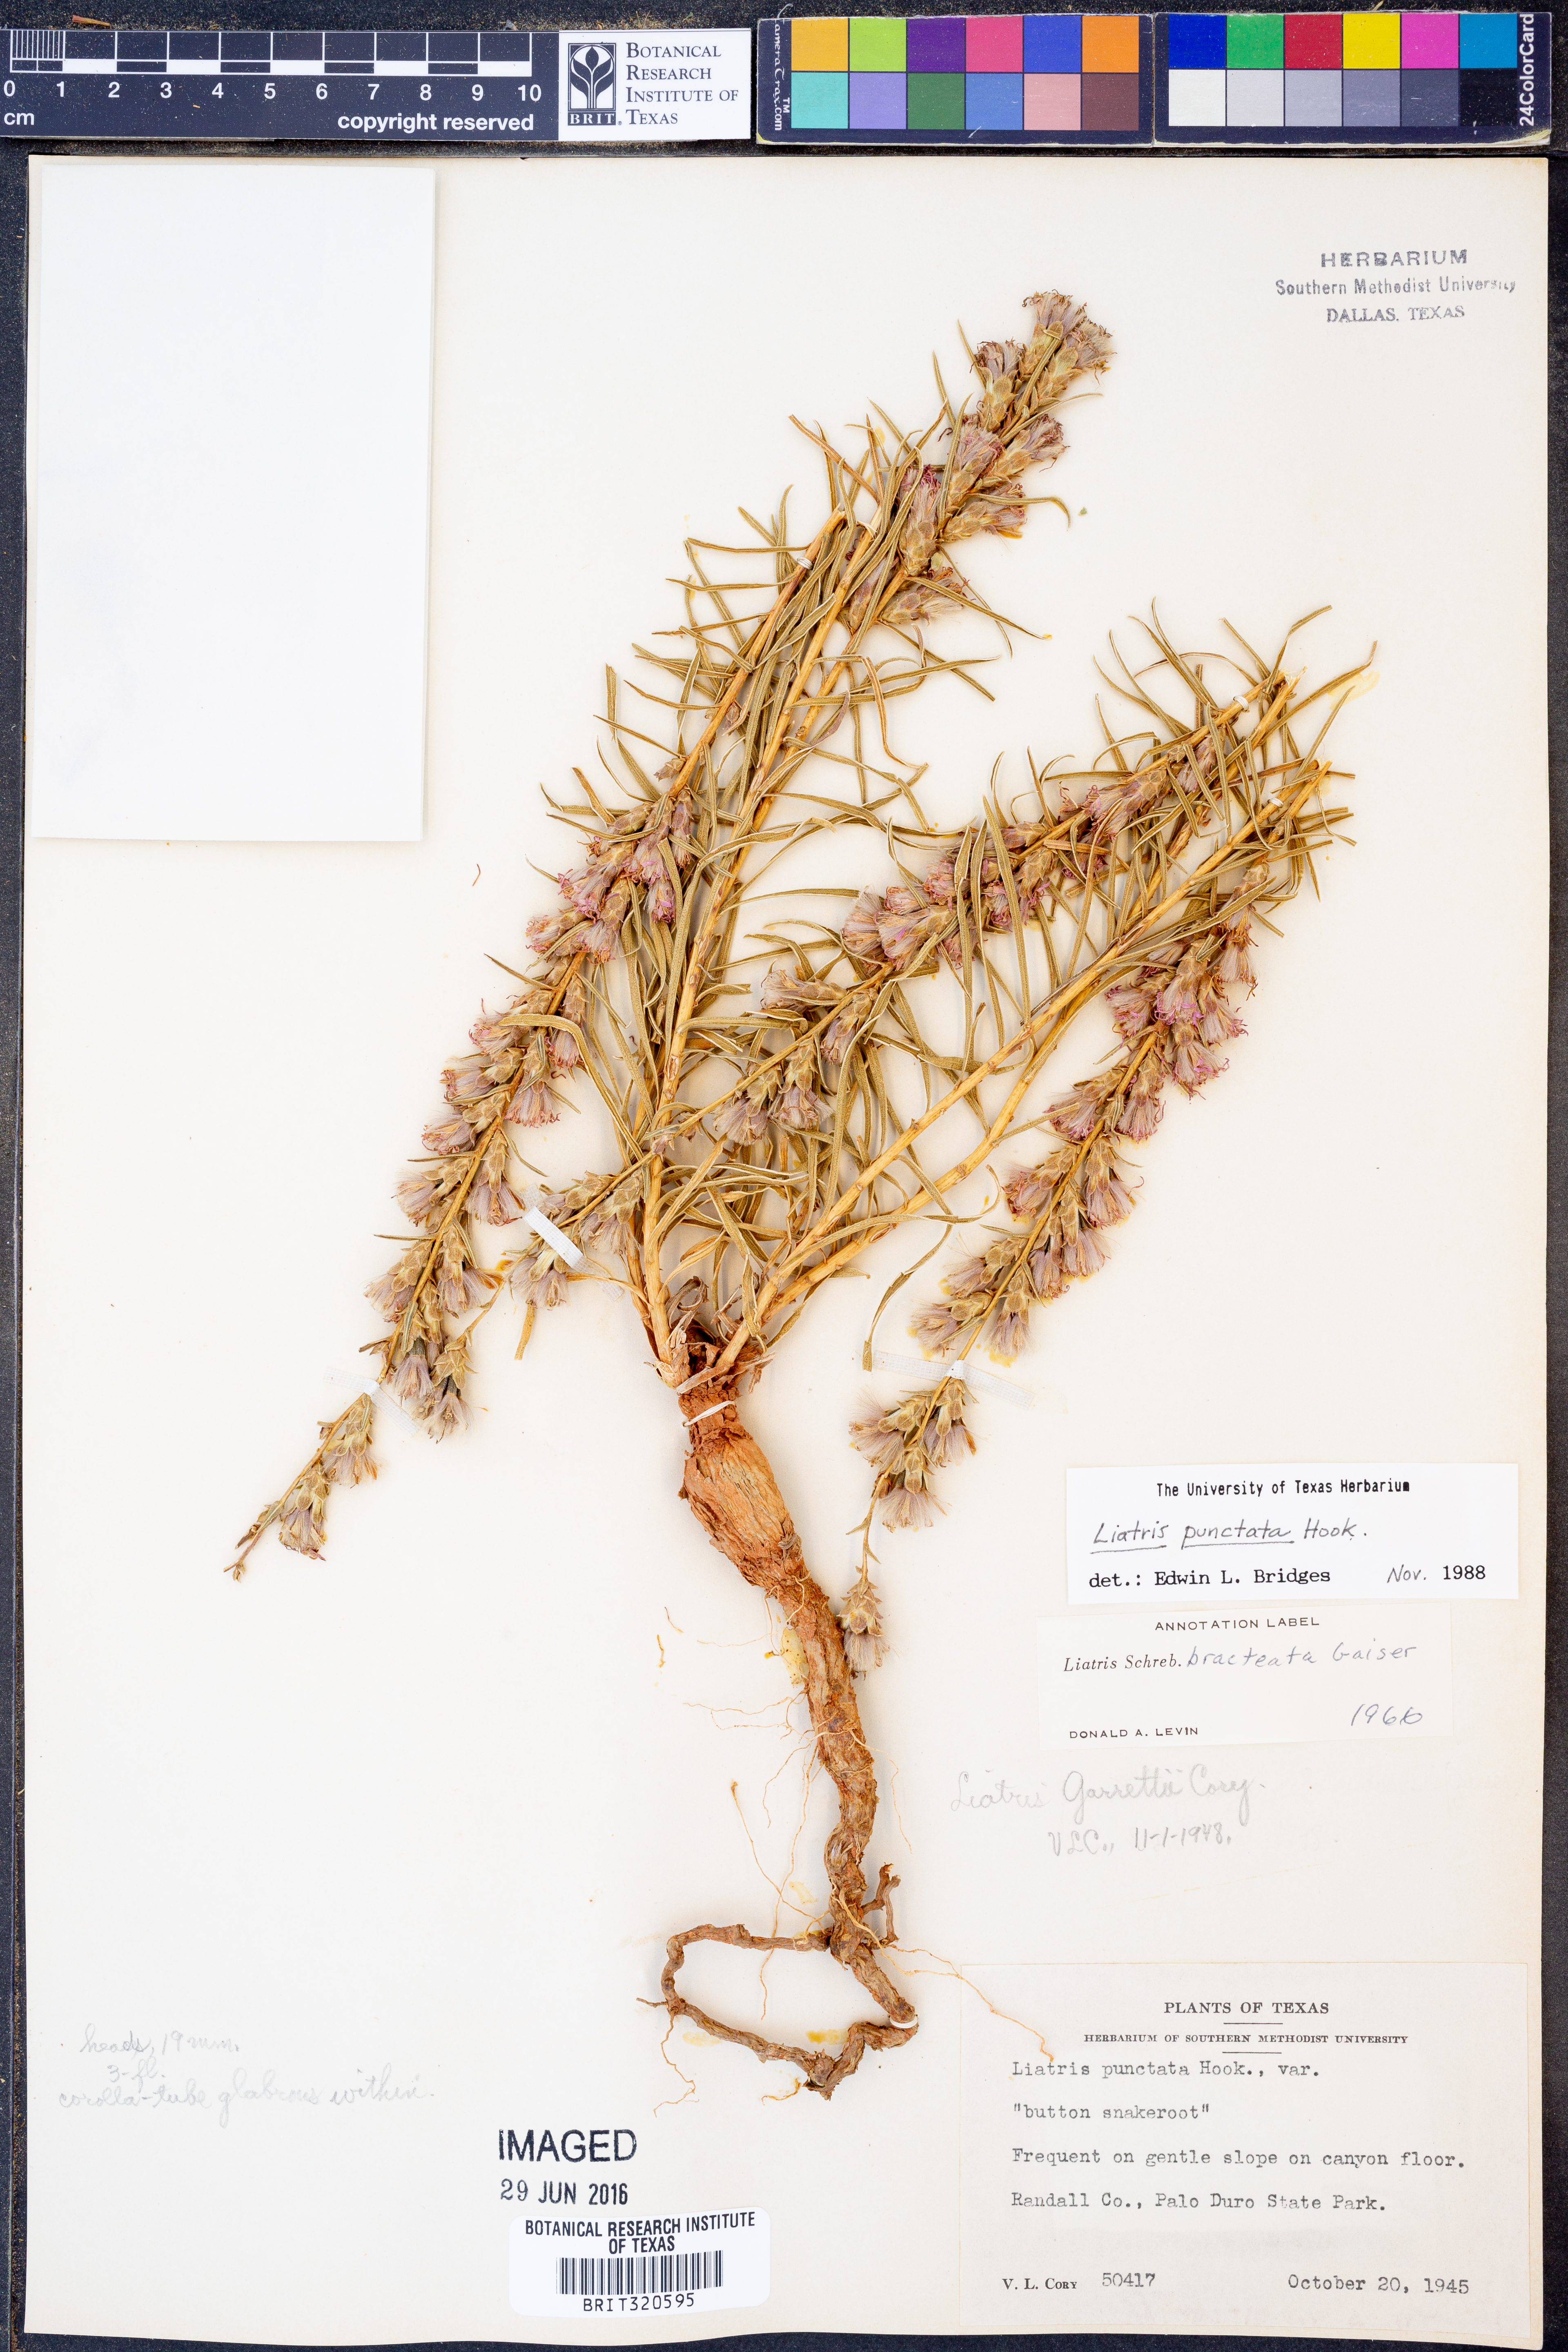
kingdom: Plantae
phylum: Tracheophyta
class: Magnoliopsida
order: Asterales
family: Asteraceae
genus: Liatris
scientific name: Liatris punctata
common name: Dotted gayfeather
